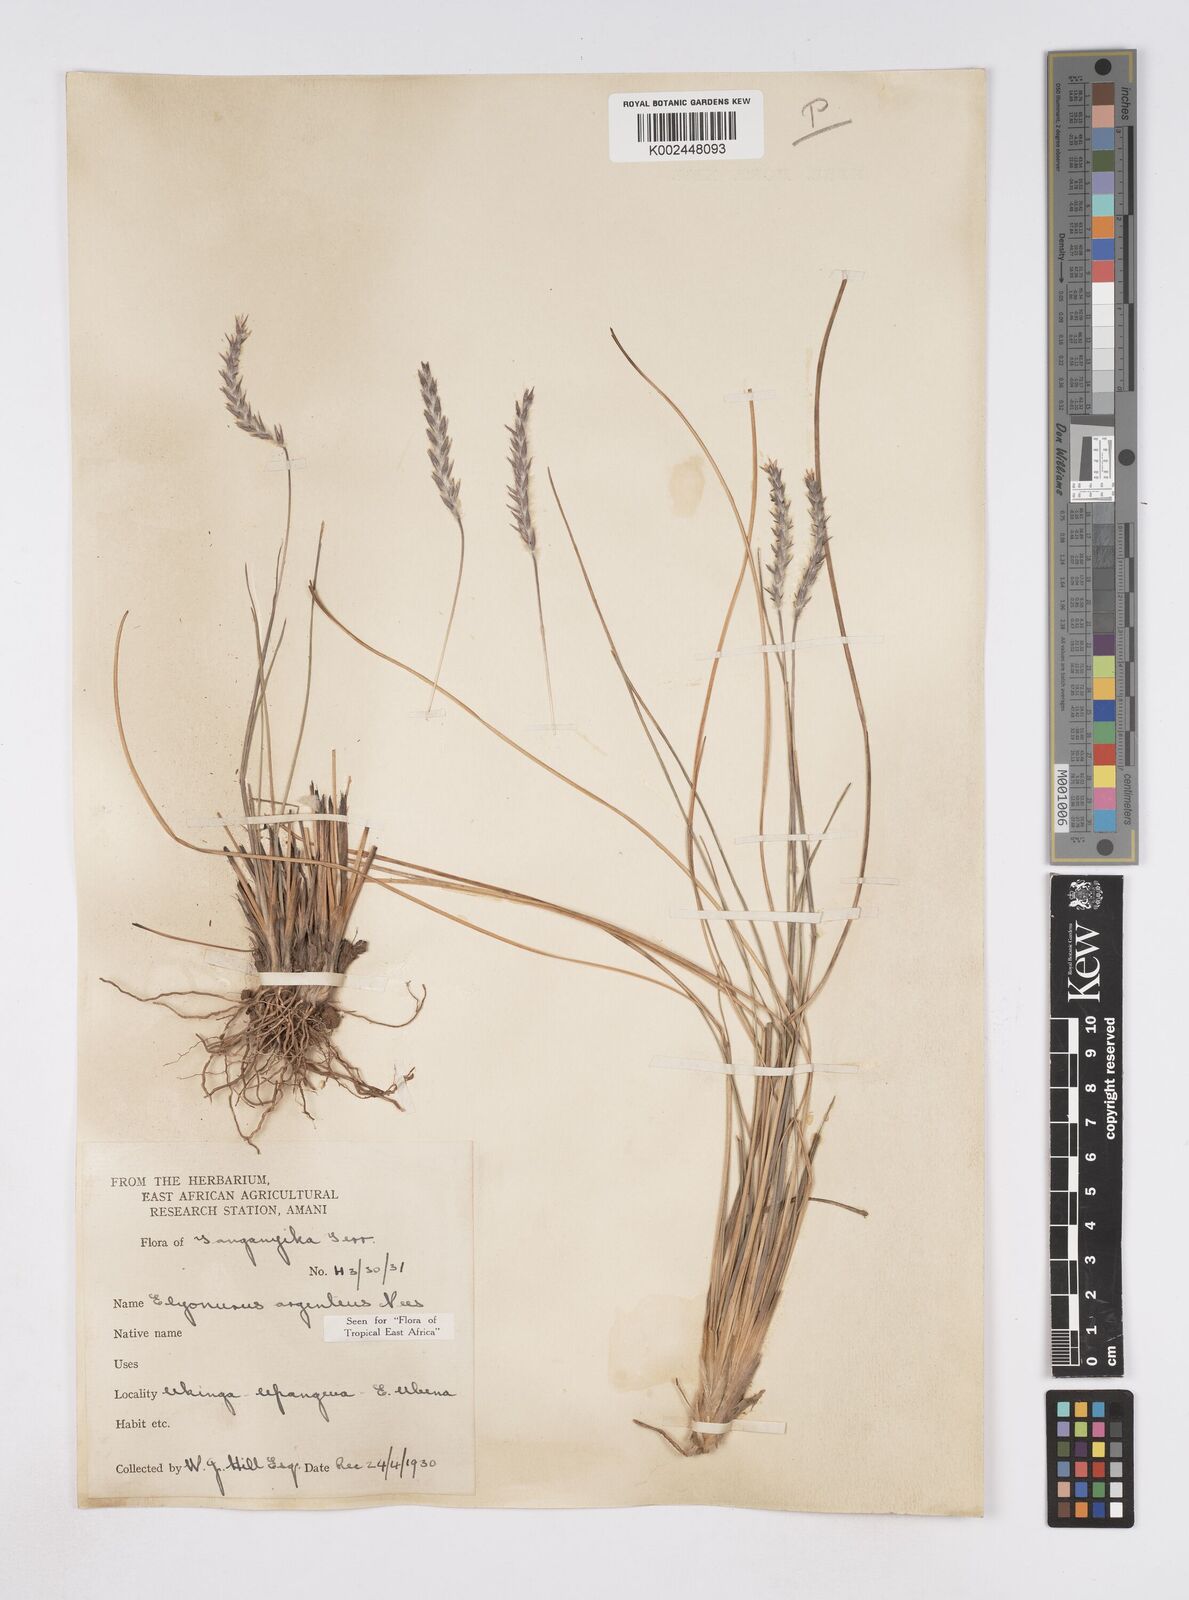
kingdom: Plantae
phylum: Tracheophyta
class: Liliopsida
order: Poales
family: Poaceae
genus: Elionurus
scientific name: Elionurus
